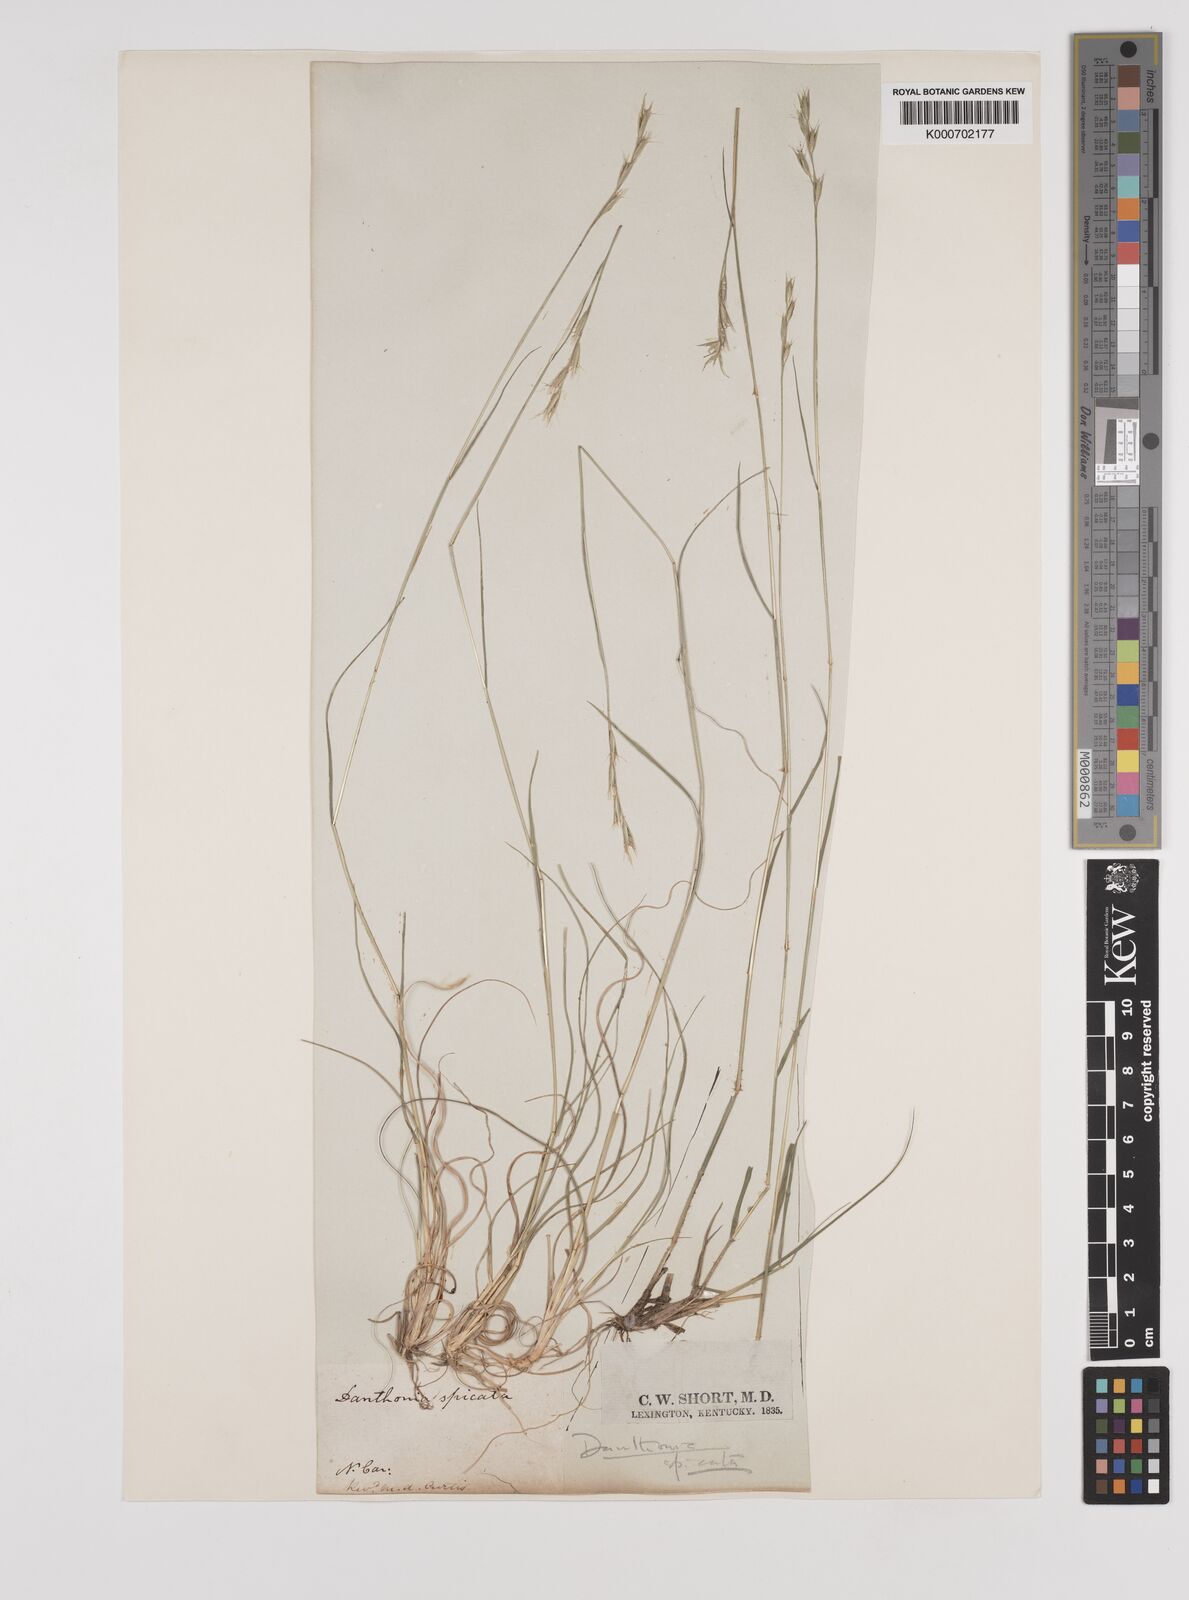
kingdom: Plantae
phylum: Tracheophyta
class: Liliopsida
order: Poales
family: Poaceae
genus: Danthonia
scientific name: Danthonia spicata
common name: Common wild oatgrass
